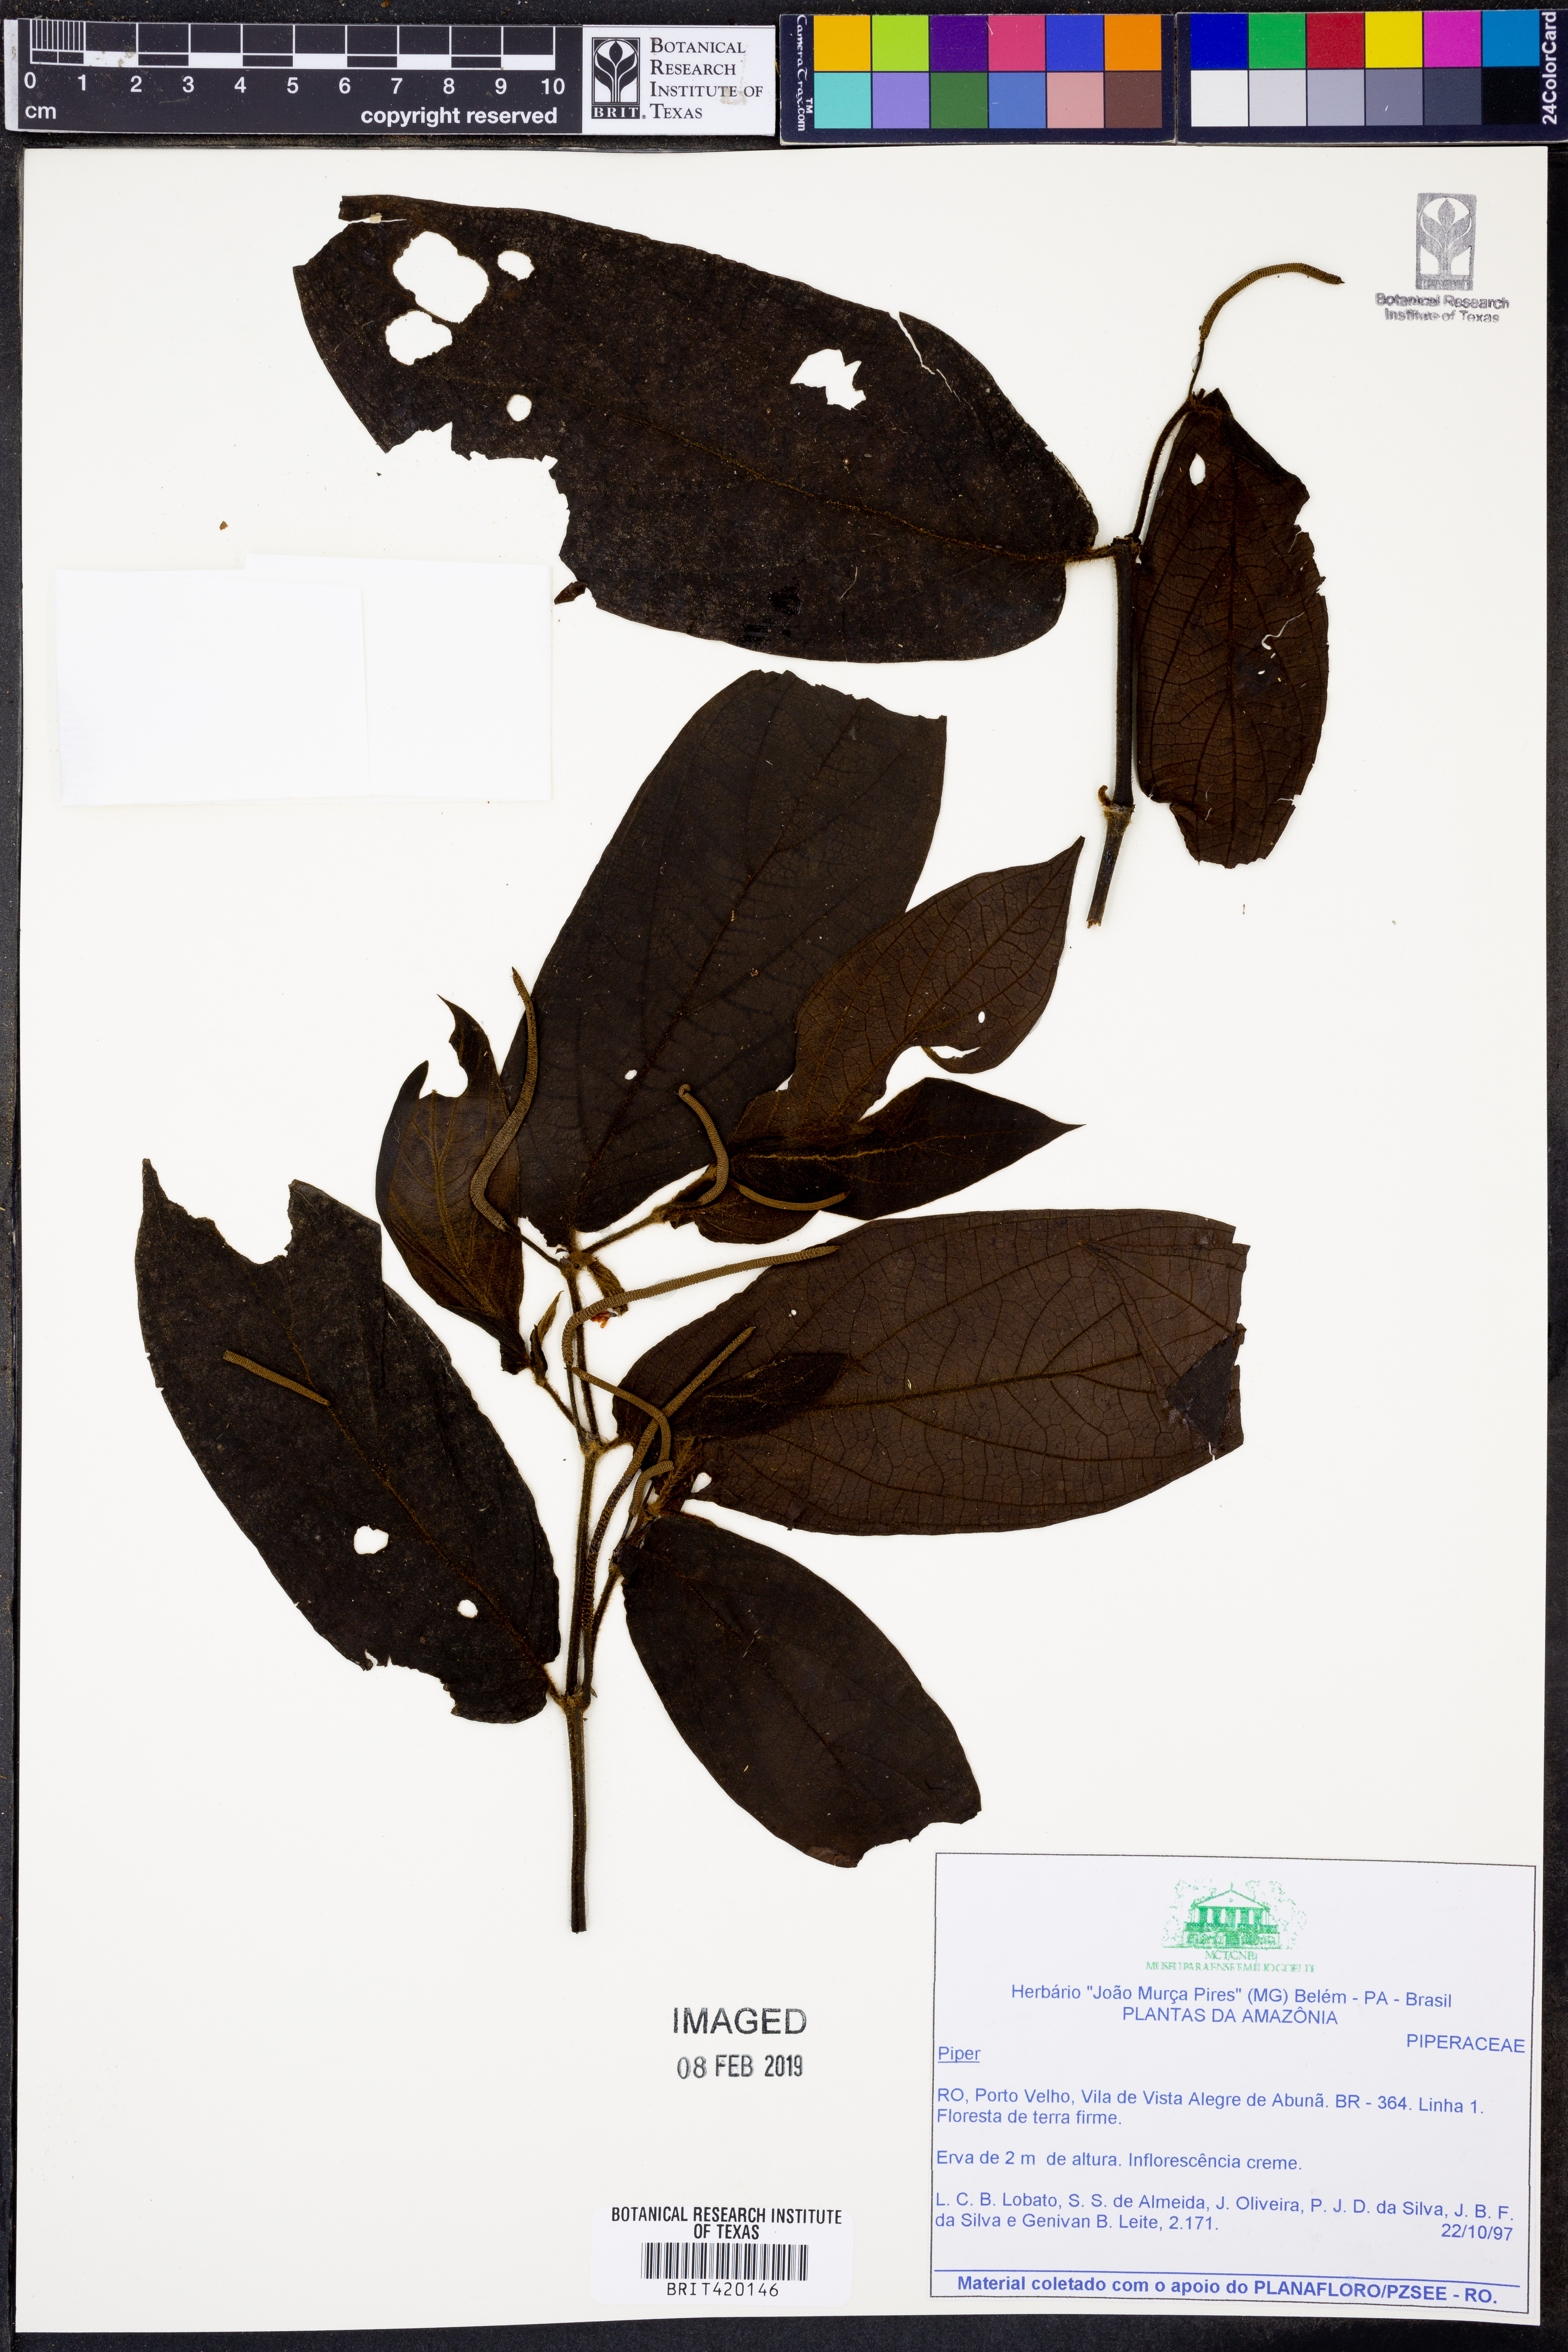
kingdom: Plantae
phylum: Tracheophyta
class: Magnoliopsida
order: Piperales
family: Piperaceae
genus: Piper
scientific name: Piper
